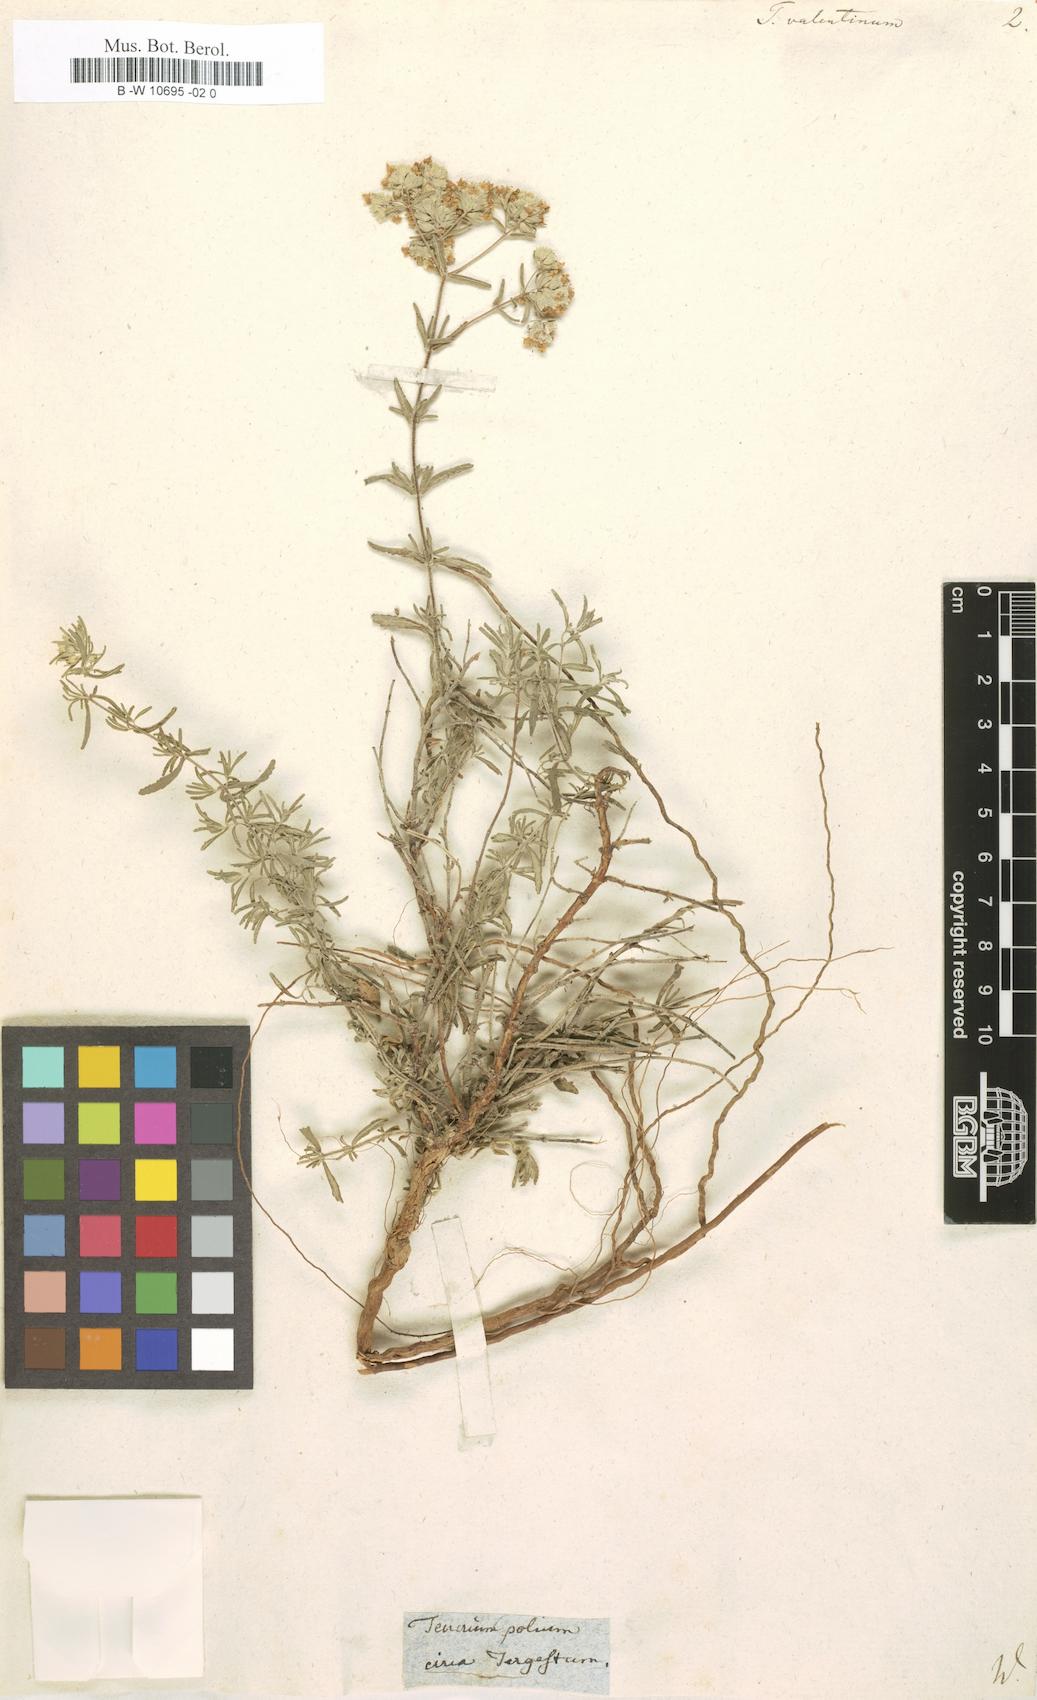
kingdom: Plantae
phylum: Tracheophyta
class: Magnoliopsida
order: Lamiales
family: Lamiaceae
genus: Teucrium
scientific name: Teucrium capitatum
